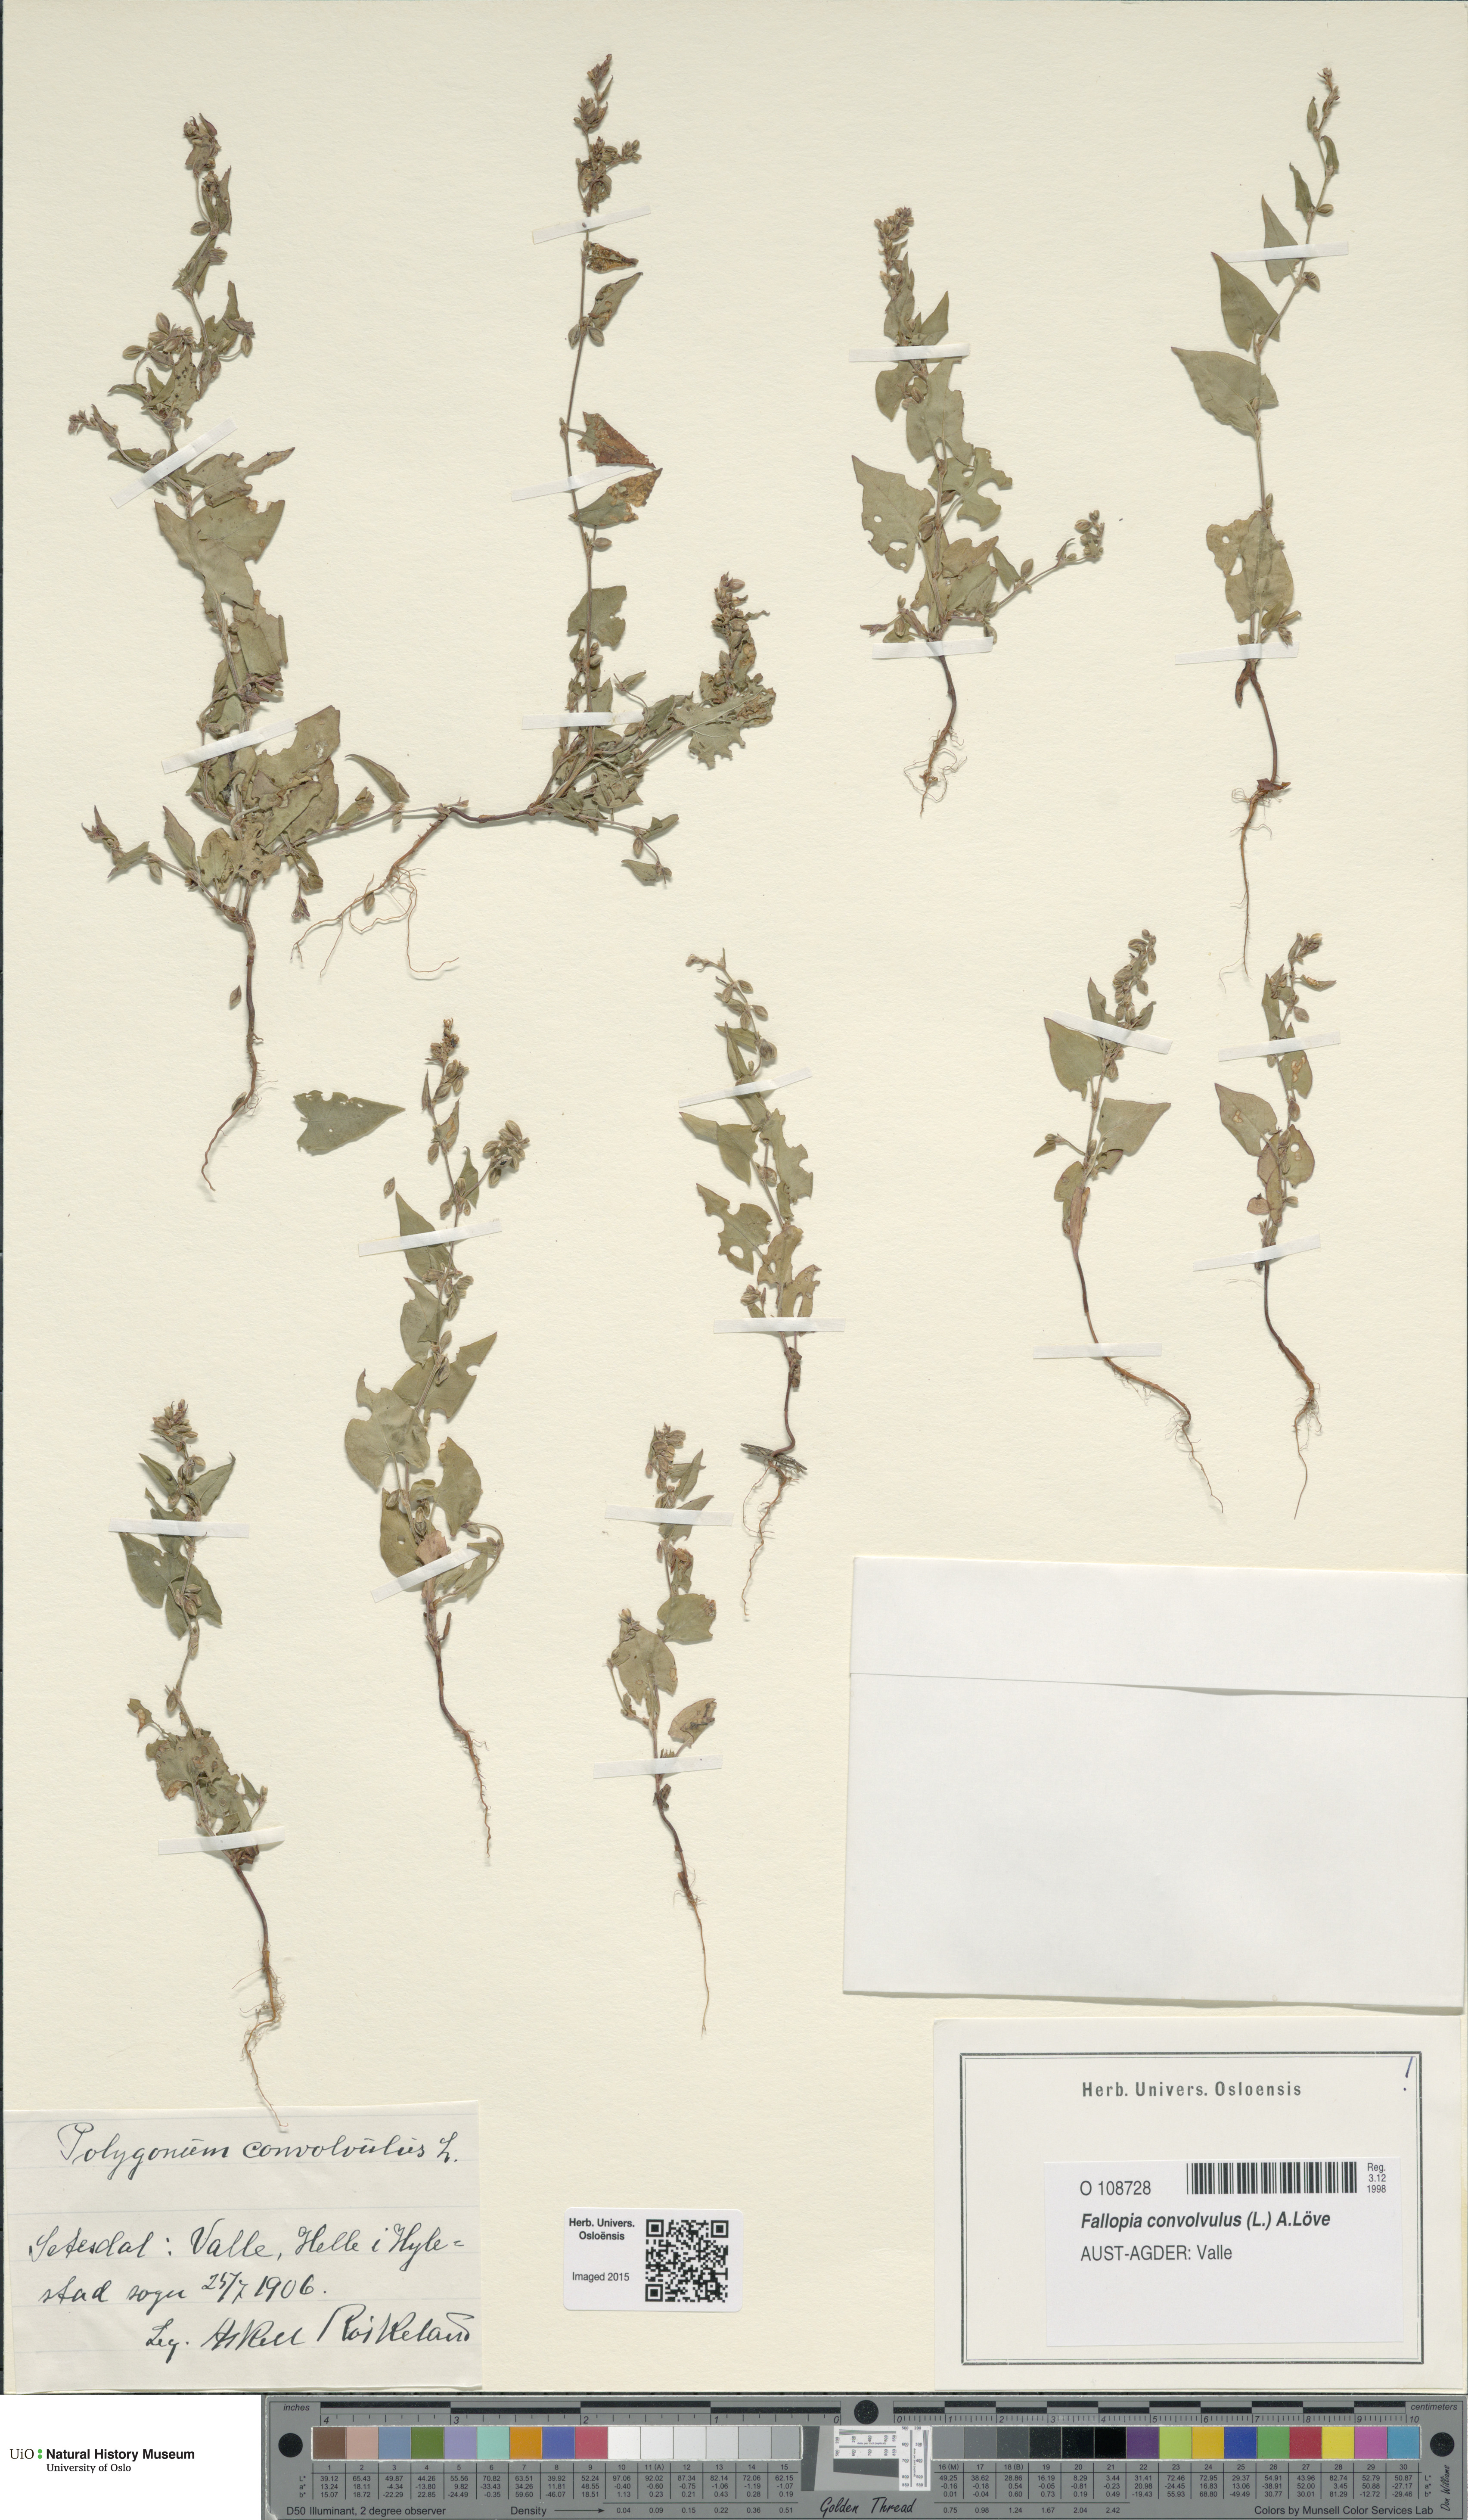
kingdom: Plantae
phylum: Tracheophyta
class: Magnoliopsida
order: Caryophyllales
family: Polygonaceae
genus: Fallopia
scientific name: Fallopia convolvulus
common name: Black bindweed
